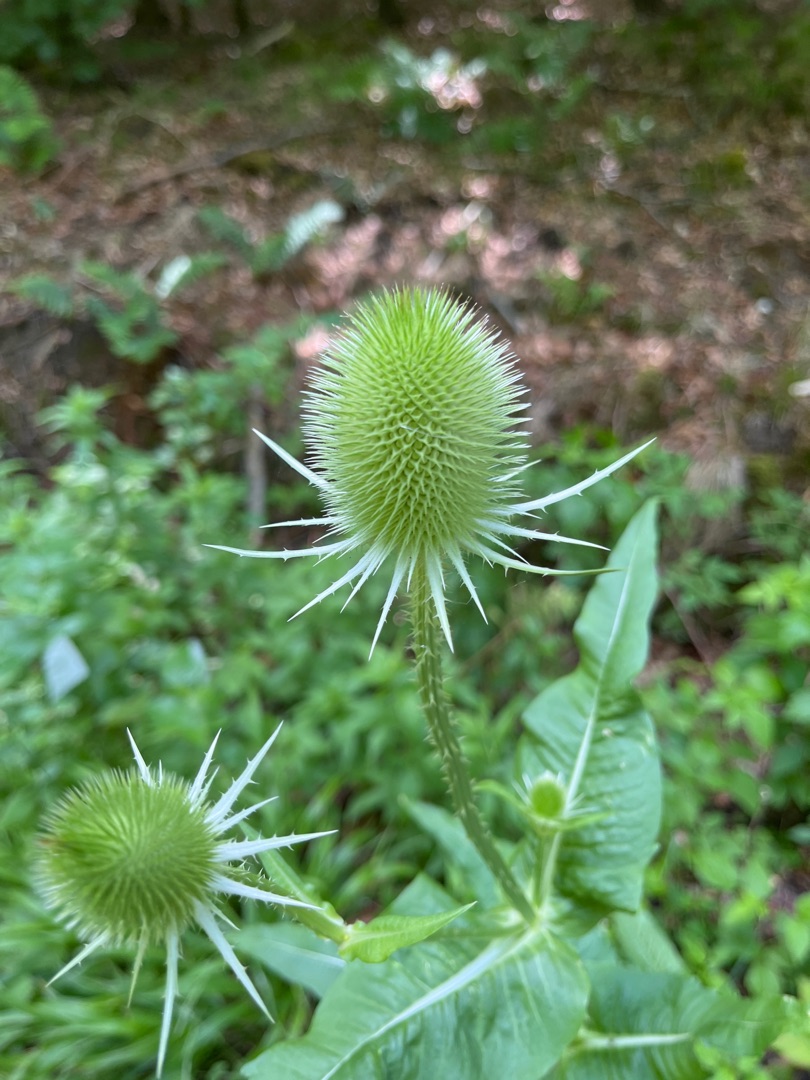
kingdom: Plantae
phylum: Tracheophyta
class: Magnoliopsida
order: Dipsacales
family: Caprifoliaceae
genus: Dipsacus
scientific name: Dipsacus fullonum
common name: Gærde-kartebolle
